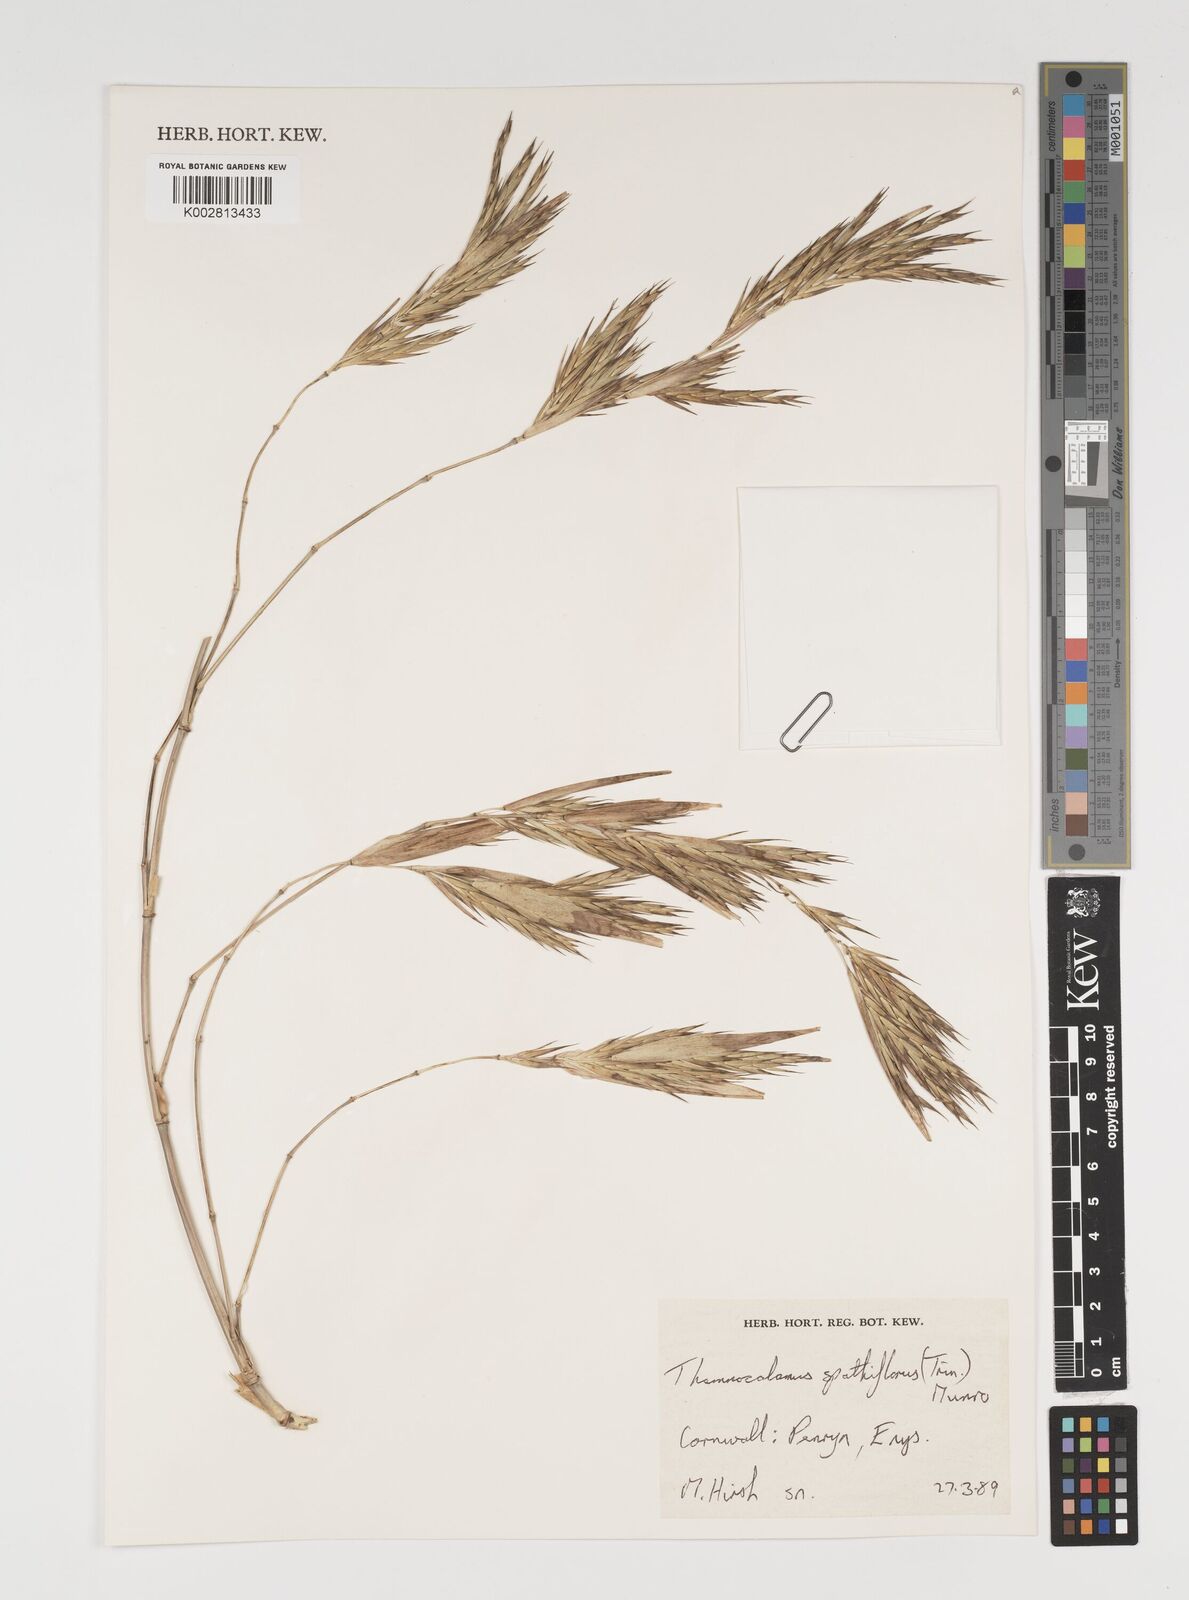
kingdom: Plantae
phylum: Tracheophyta
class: Liliopsida
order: Poales
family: Poaceae
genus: Thamnocalamus
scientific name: Thamnocalamus spathiflorus
